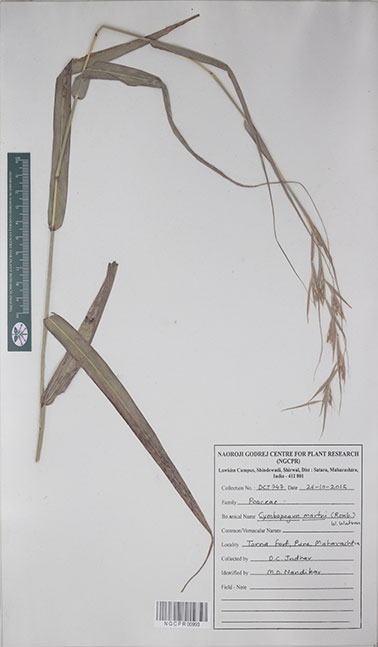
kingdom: Plantae
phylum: Tracheophyta
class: Liliopsida
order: Poales
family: Poaceae
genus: Cymbopogon
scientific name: Cymbopogon martini
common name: Ginger grass
